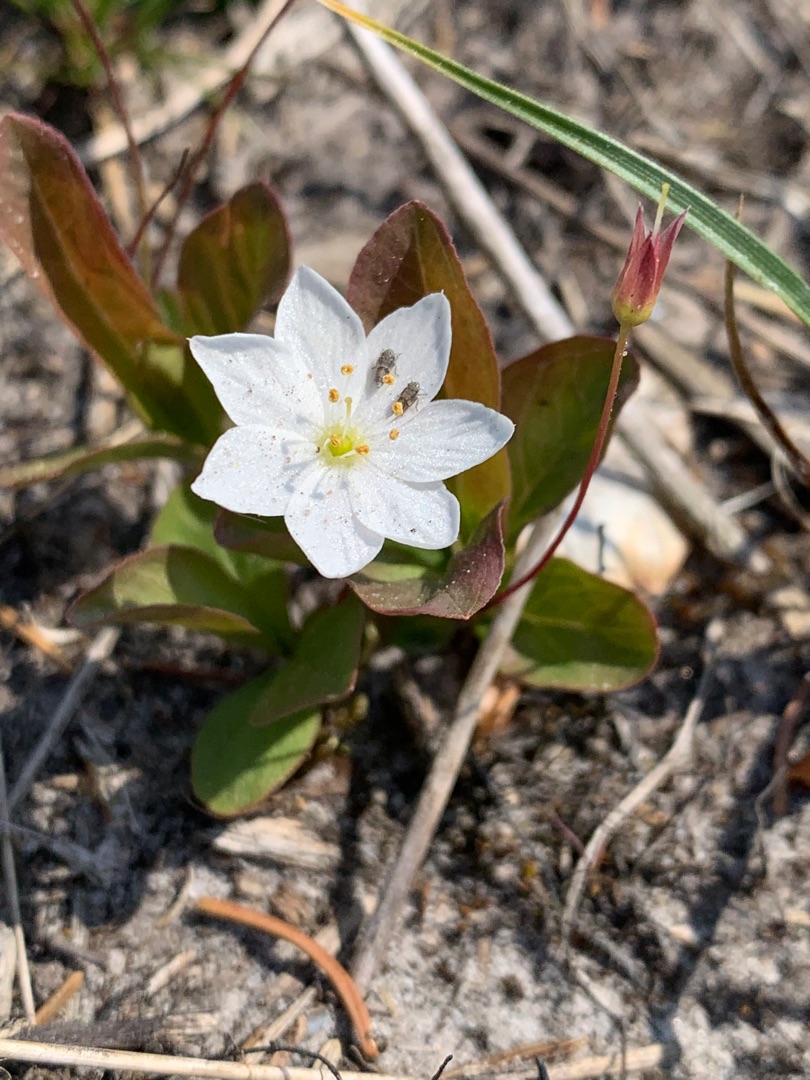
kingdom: Plantae
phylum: Tracheophyta
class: Magnoliopsida
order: Ericales
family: Primulaceae
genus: Lysimachia
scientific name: Lysimachia europaea
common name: Skovstjerne
